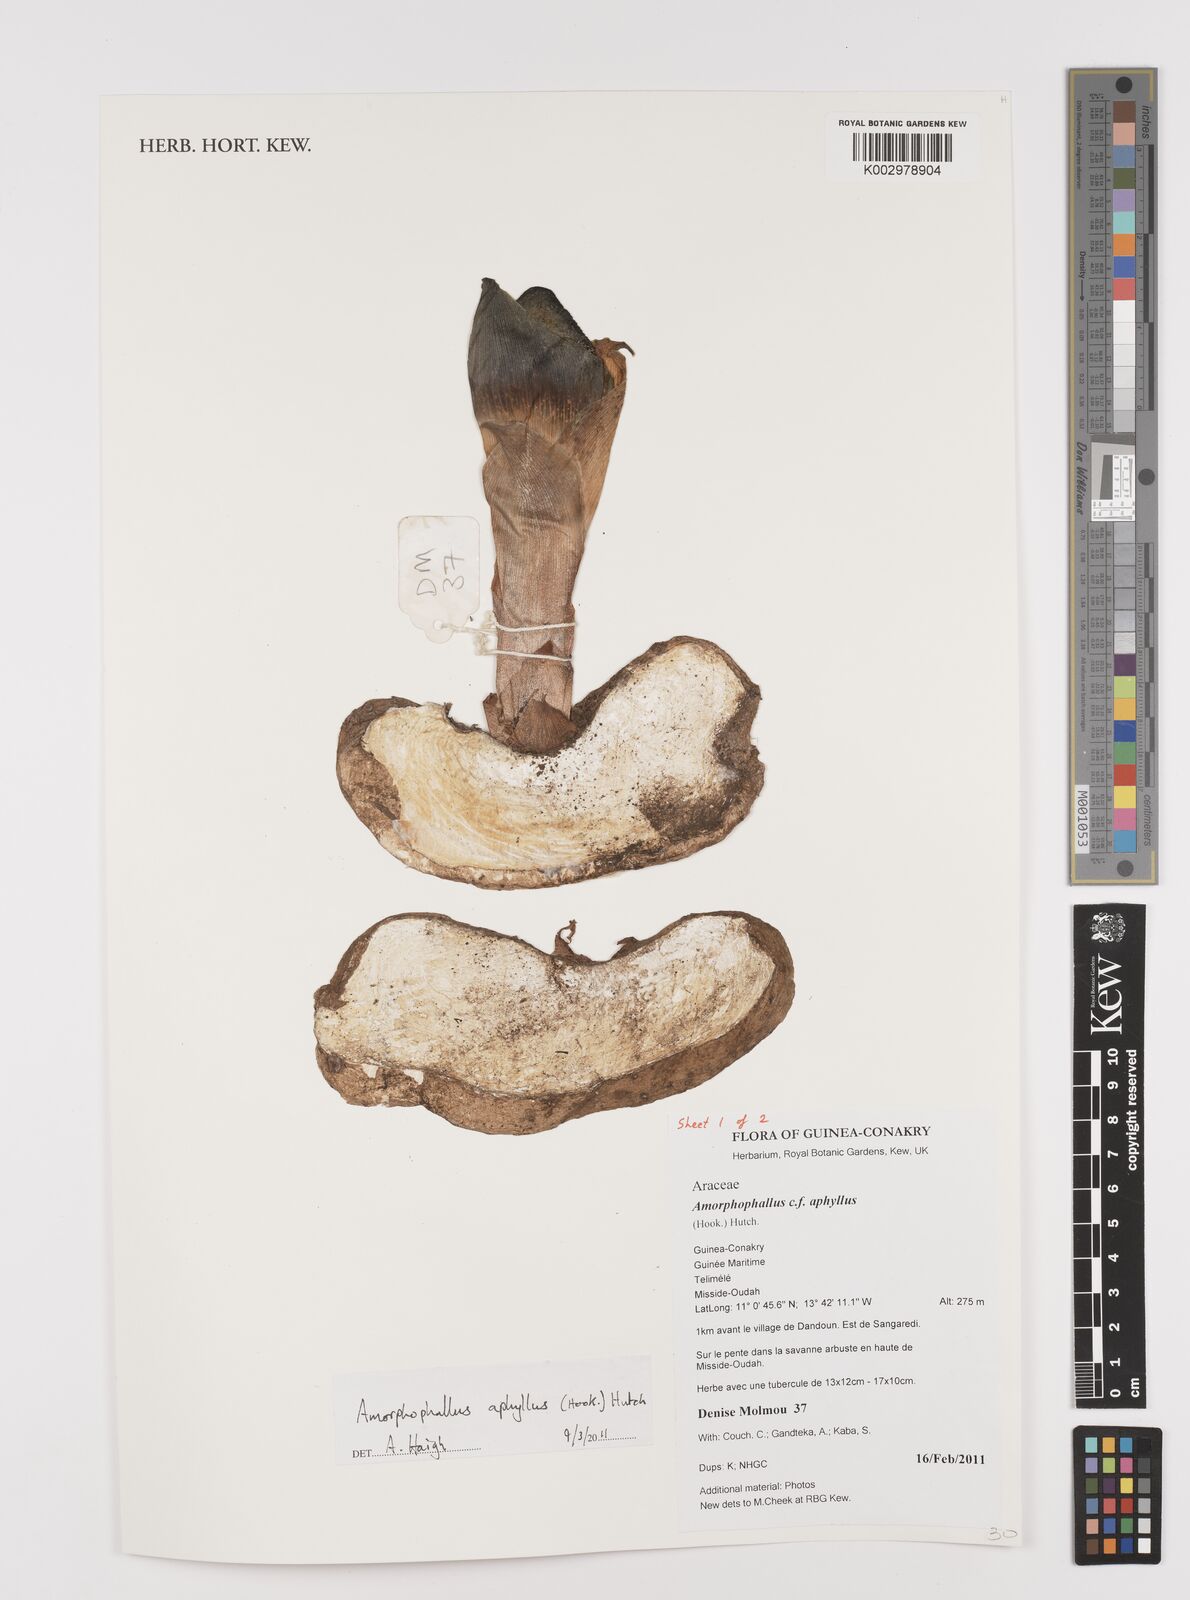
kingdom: Plantae
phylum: Tracheophyta
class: Liliopsida
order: Alismatales
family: Araceae
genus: Amorphophallus
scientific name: Amorphophallus aphyllus
